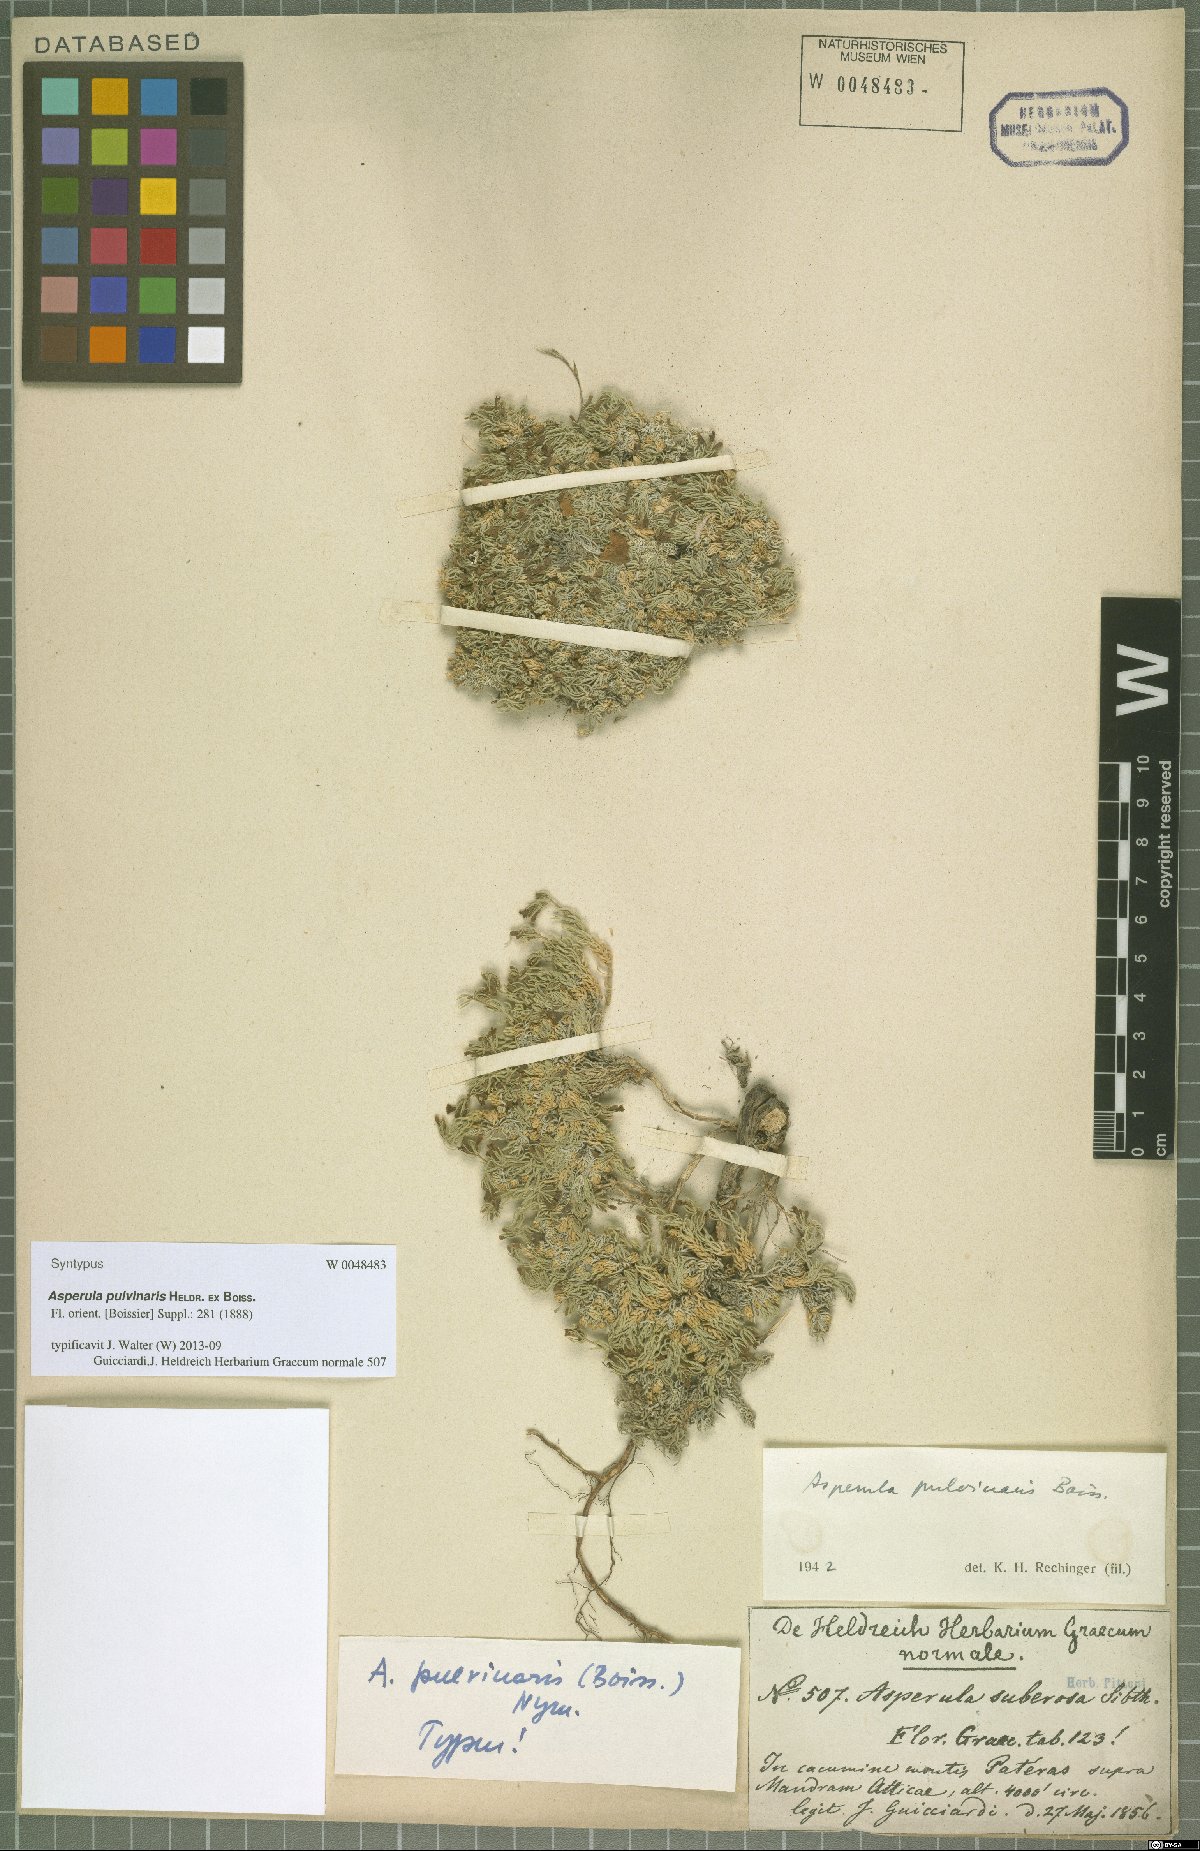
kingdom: Plantae
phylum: Tracheophyta
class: Magnoliopsida
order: Gentianales
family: Rubiaceae
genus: Cynanchica
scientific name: Cynanchica pulvinaris
